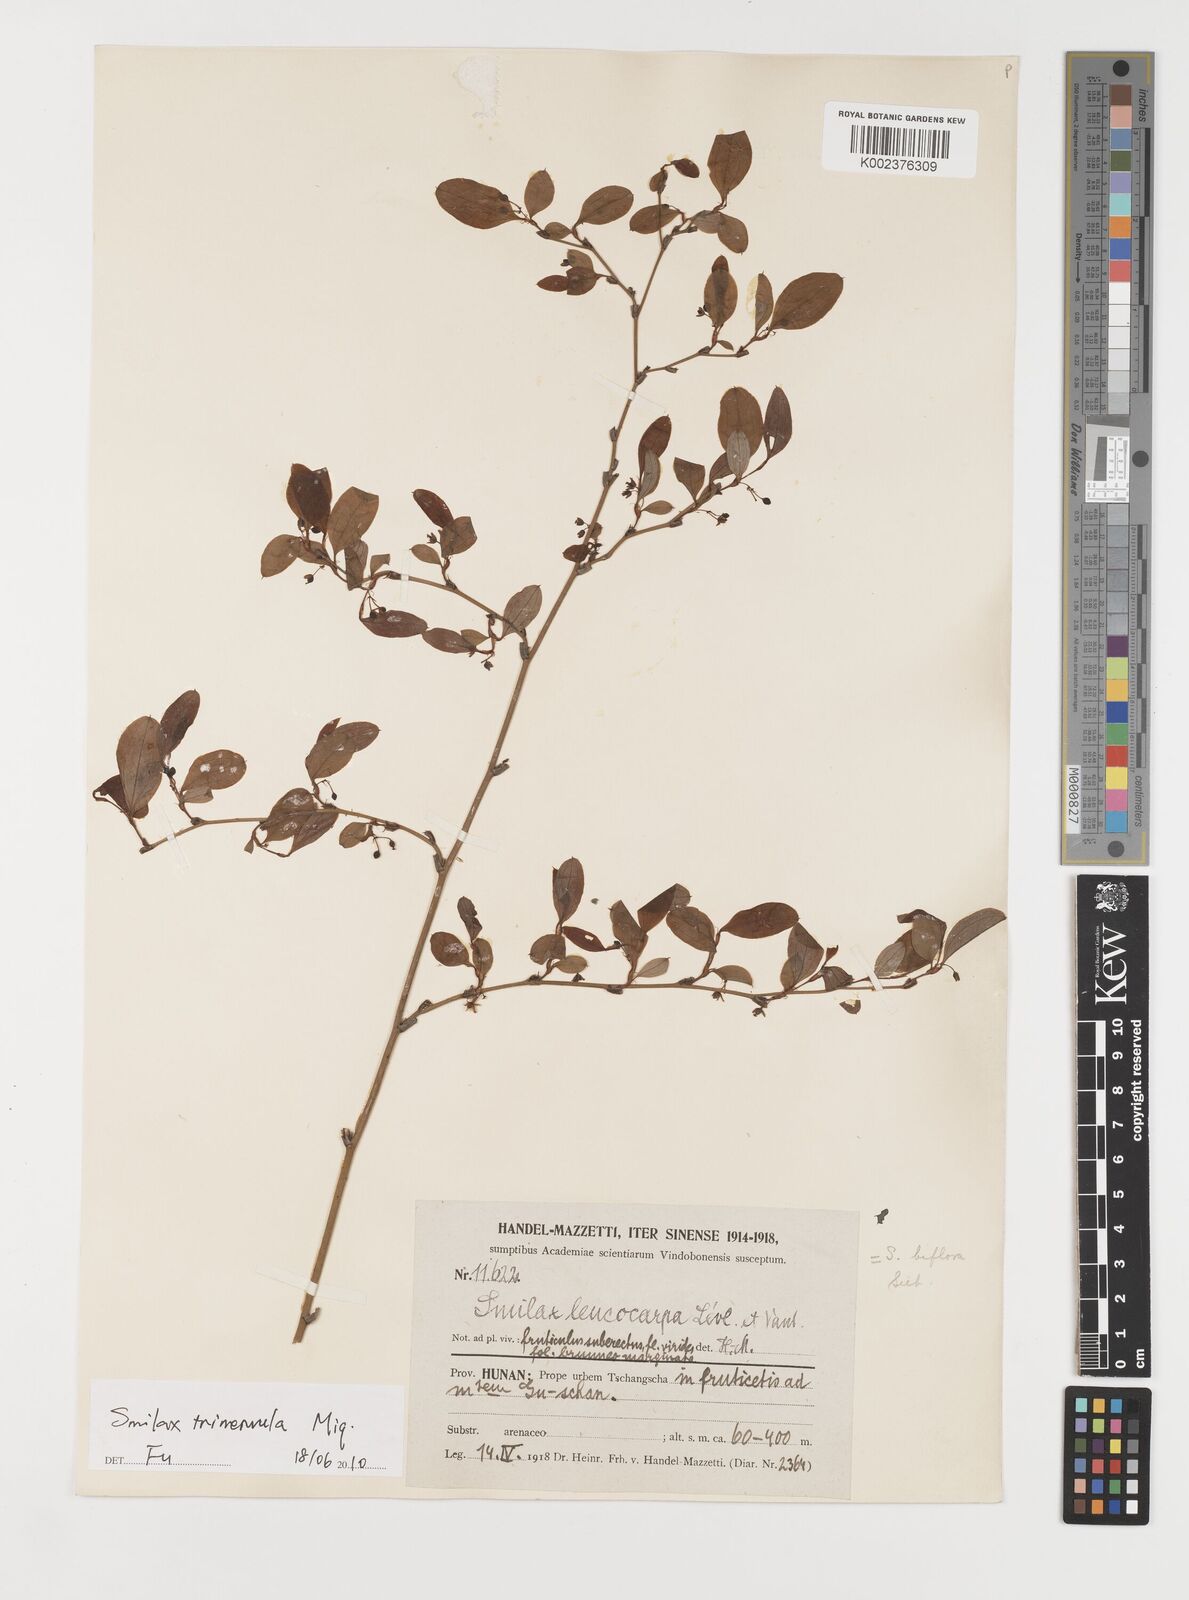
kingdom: Plantae
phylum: Tracheophyta
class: Liliopsida
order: Liliales
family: Smilacaceae
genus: Smilax
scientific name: Smilax trinervula
